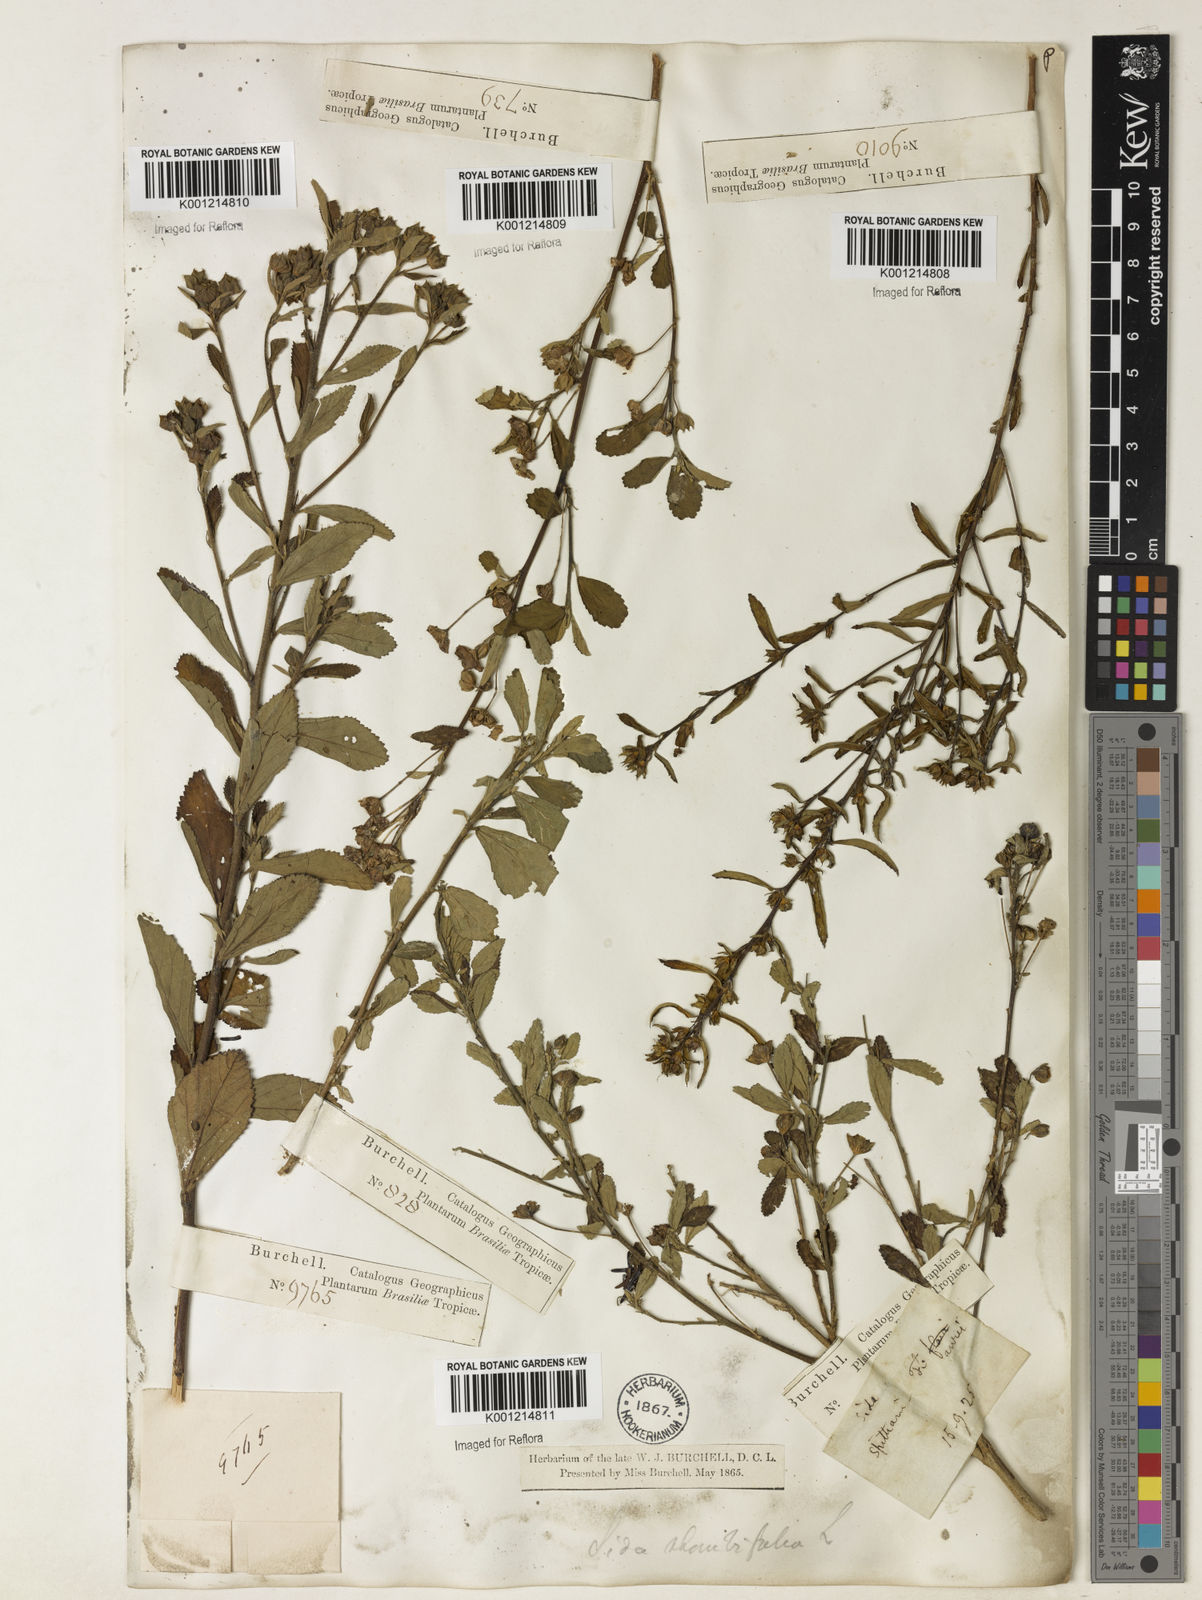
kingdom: Plantae
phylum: Tracheophyta
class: Magnoliopsida
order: Malvales
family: Malvaceae
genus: Sida
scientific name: Sida rhombifolia
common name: Queensland-hemp
